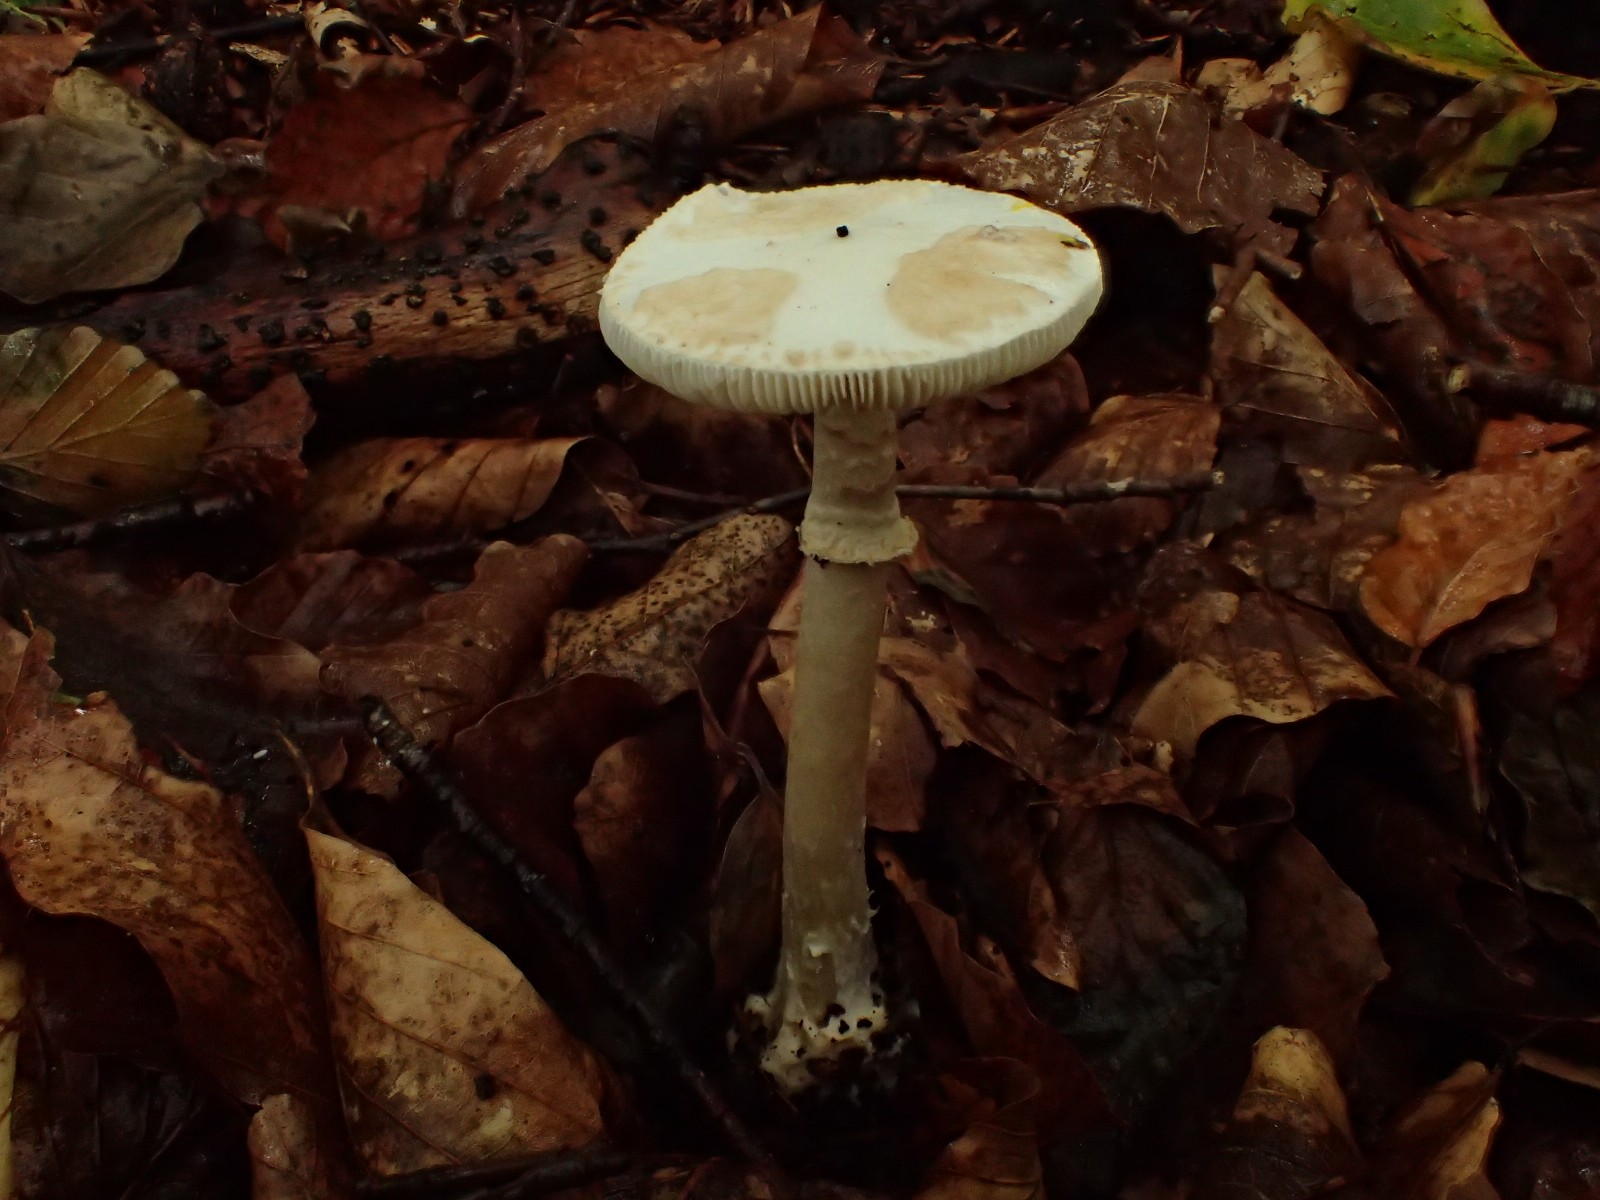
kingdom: Fungi
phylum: Basidiomycota
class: Agaricomycetes
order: Agaricales
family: Amanitaceae
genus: Amanita
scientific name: Amanita citrina
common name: False death-cap
